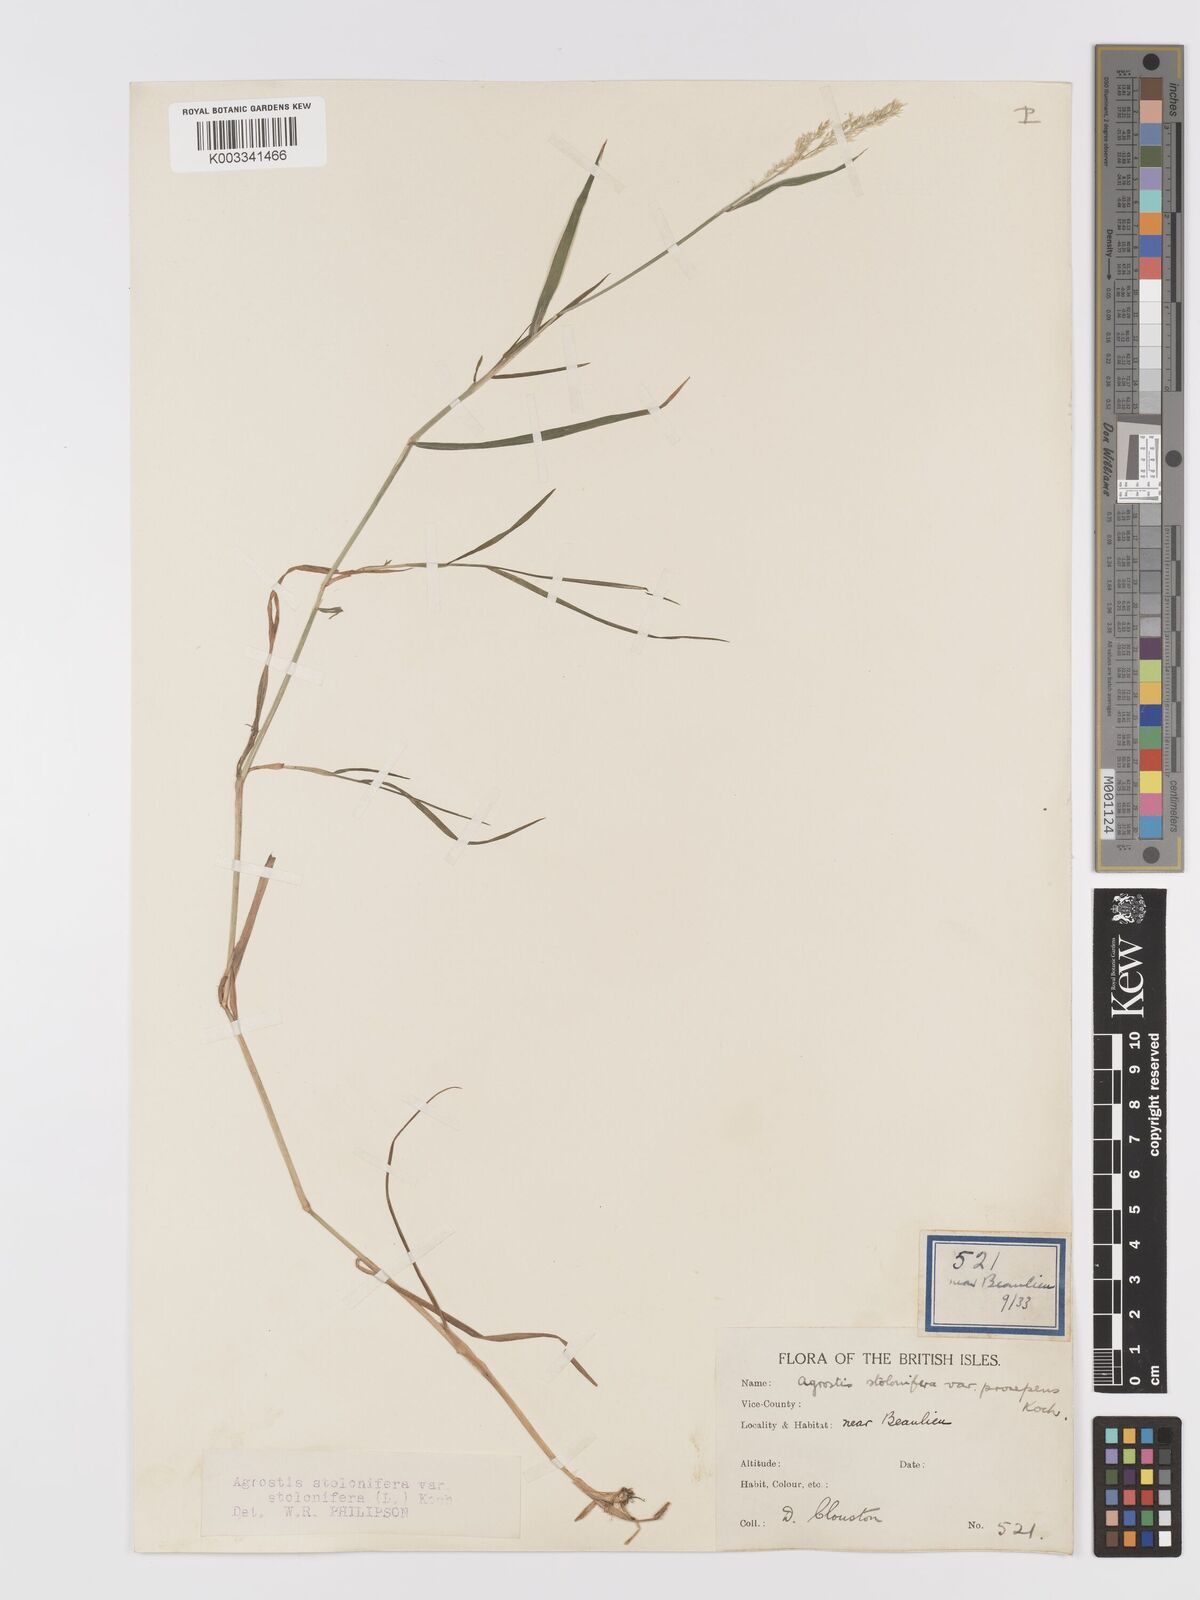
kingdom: Plantae
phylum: Tracheophyta
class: Liliopsida
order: Poales
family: Poaceae
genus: Agrostis
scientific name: Agrostis stolonifera
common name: Creeping bentgrass
